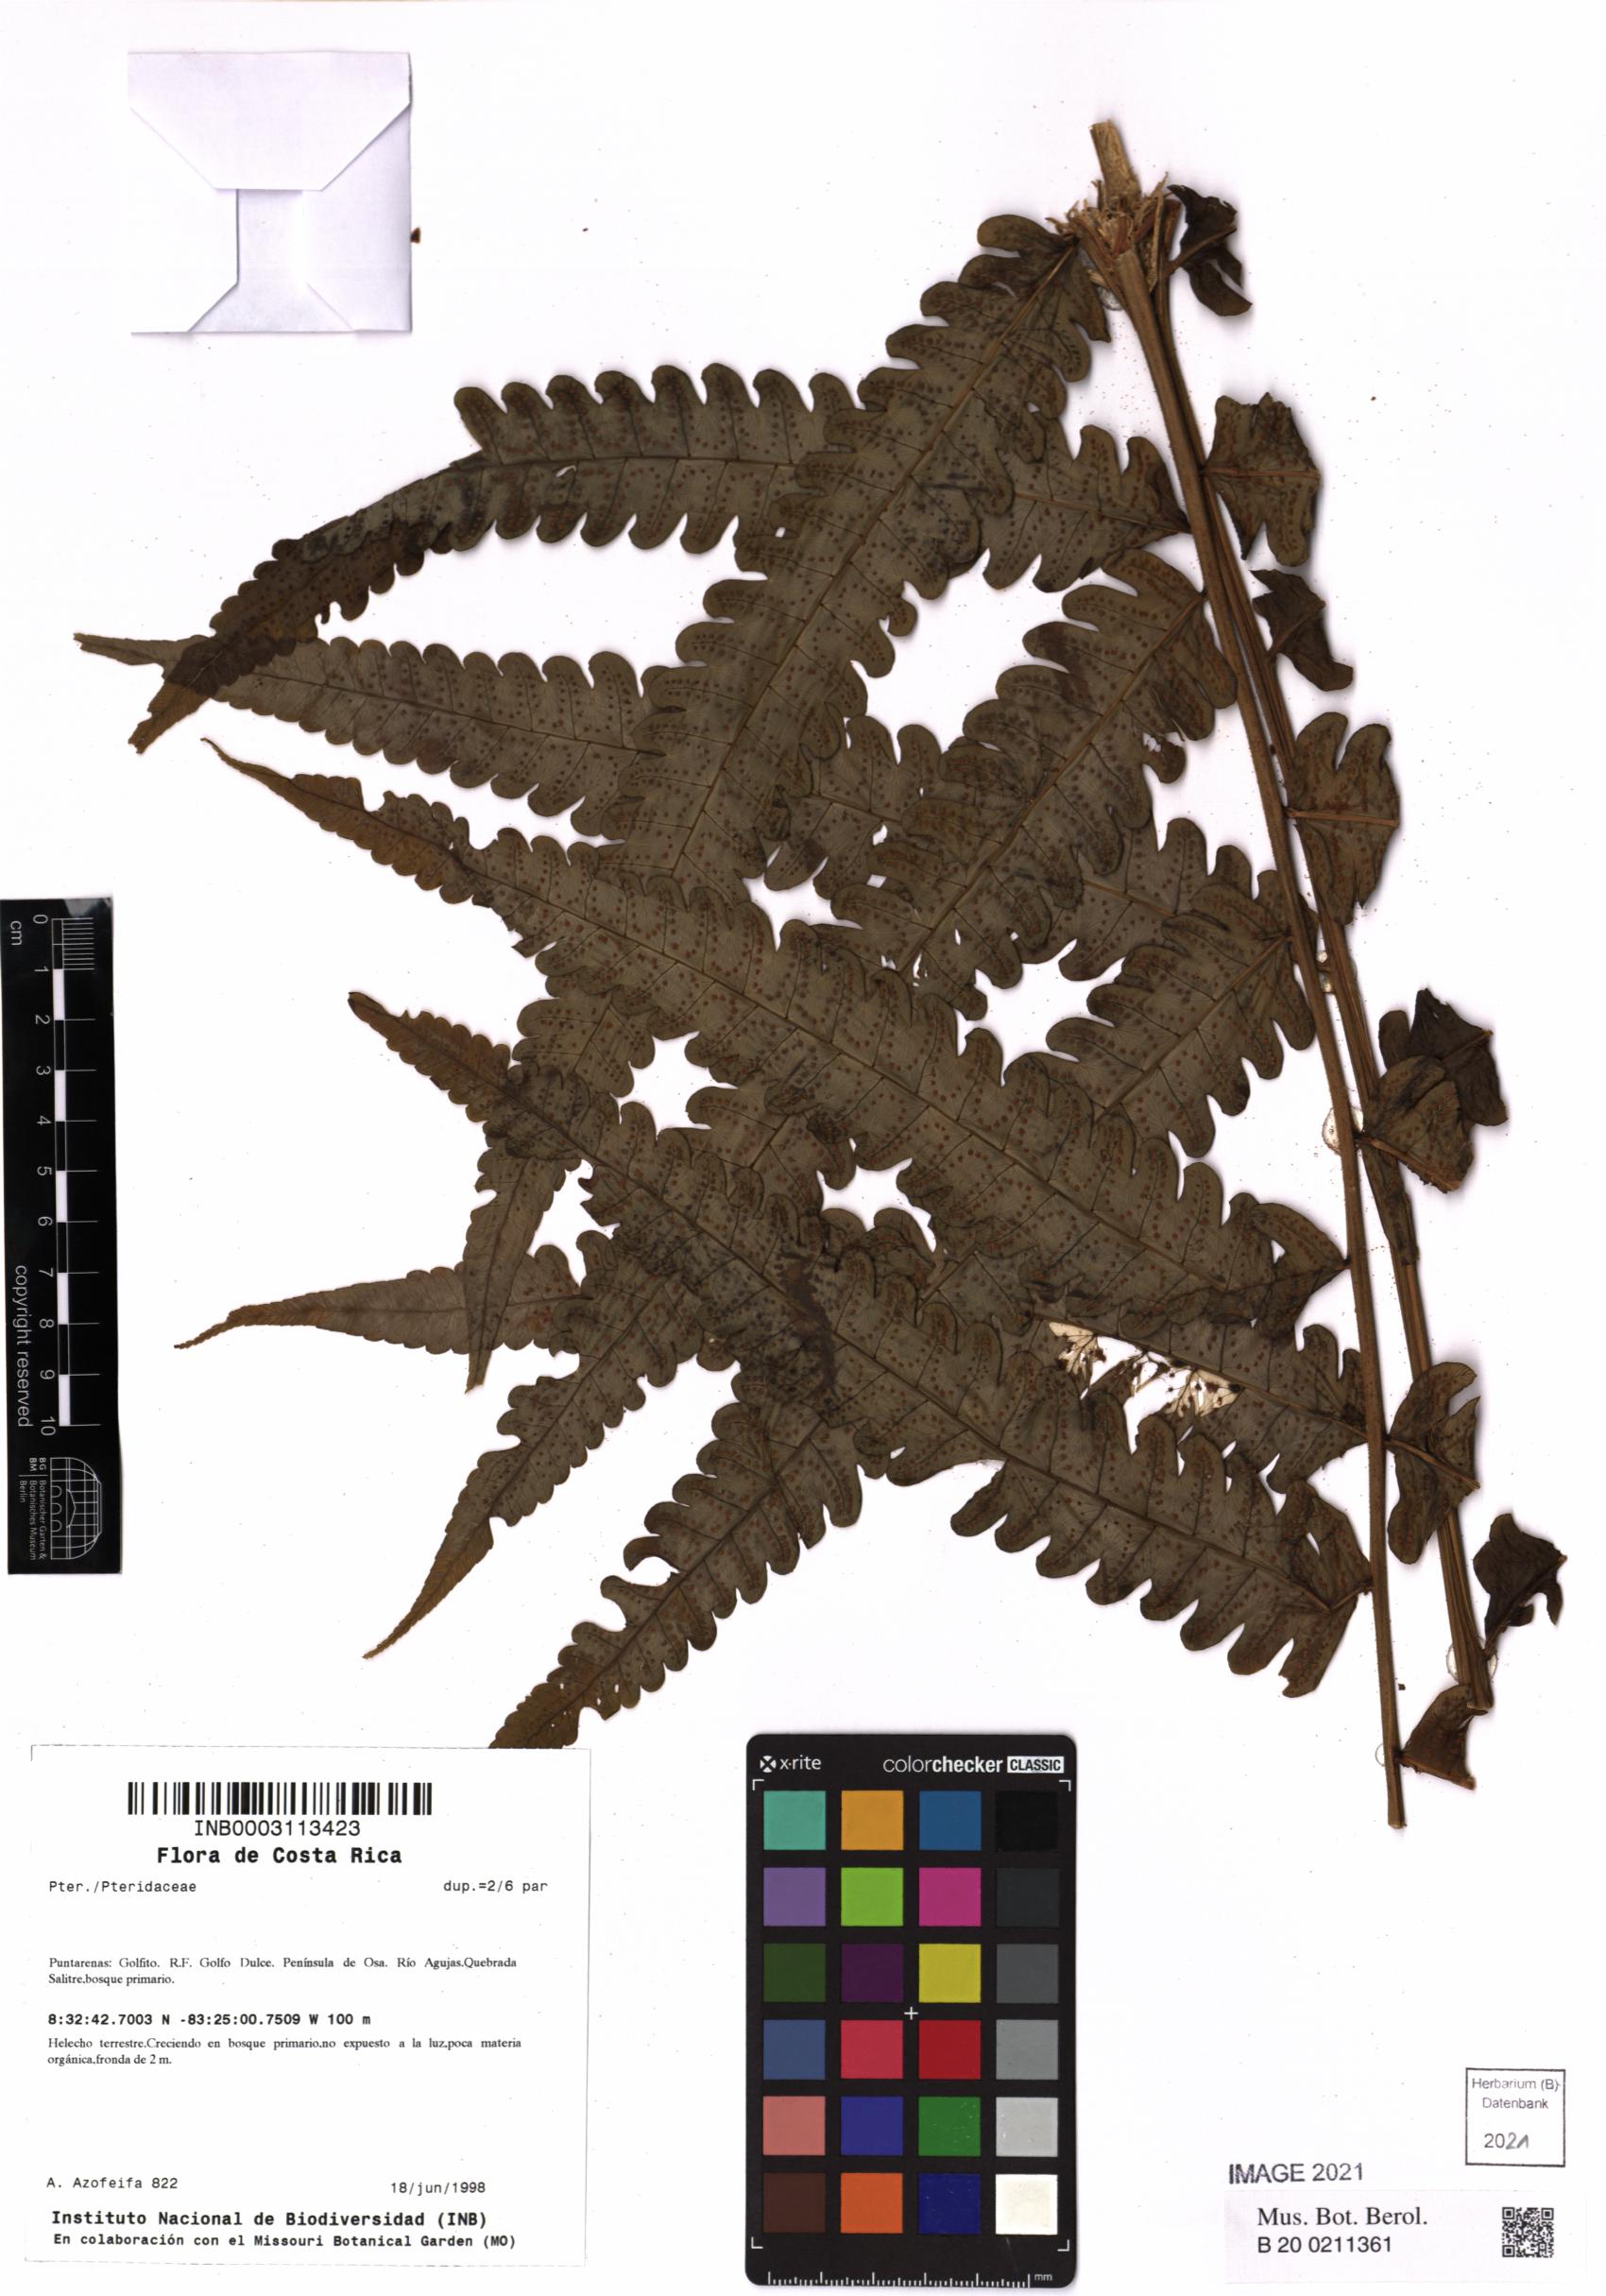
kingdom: Plantae
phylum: Tracheophyta
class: Polypodiopsida
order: Polypodiales
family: Pteridaceae
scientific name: Pteridaceae
